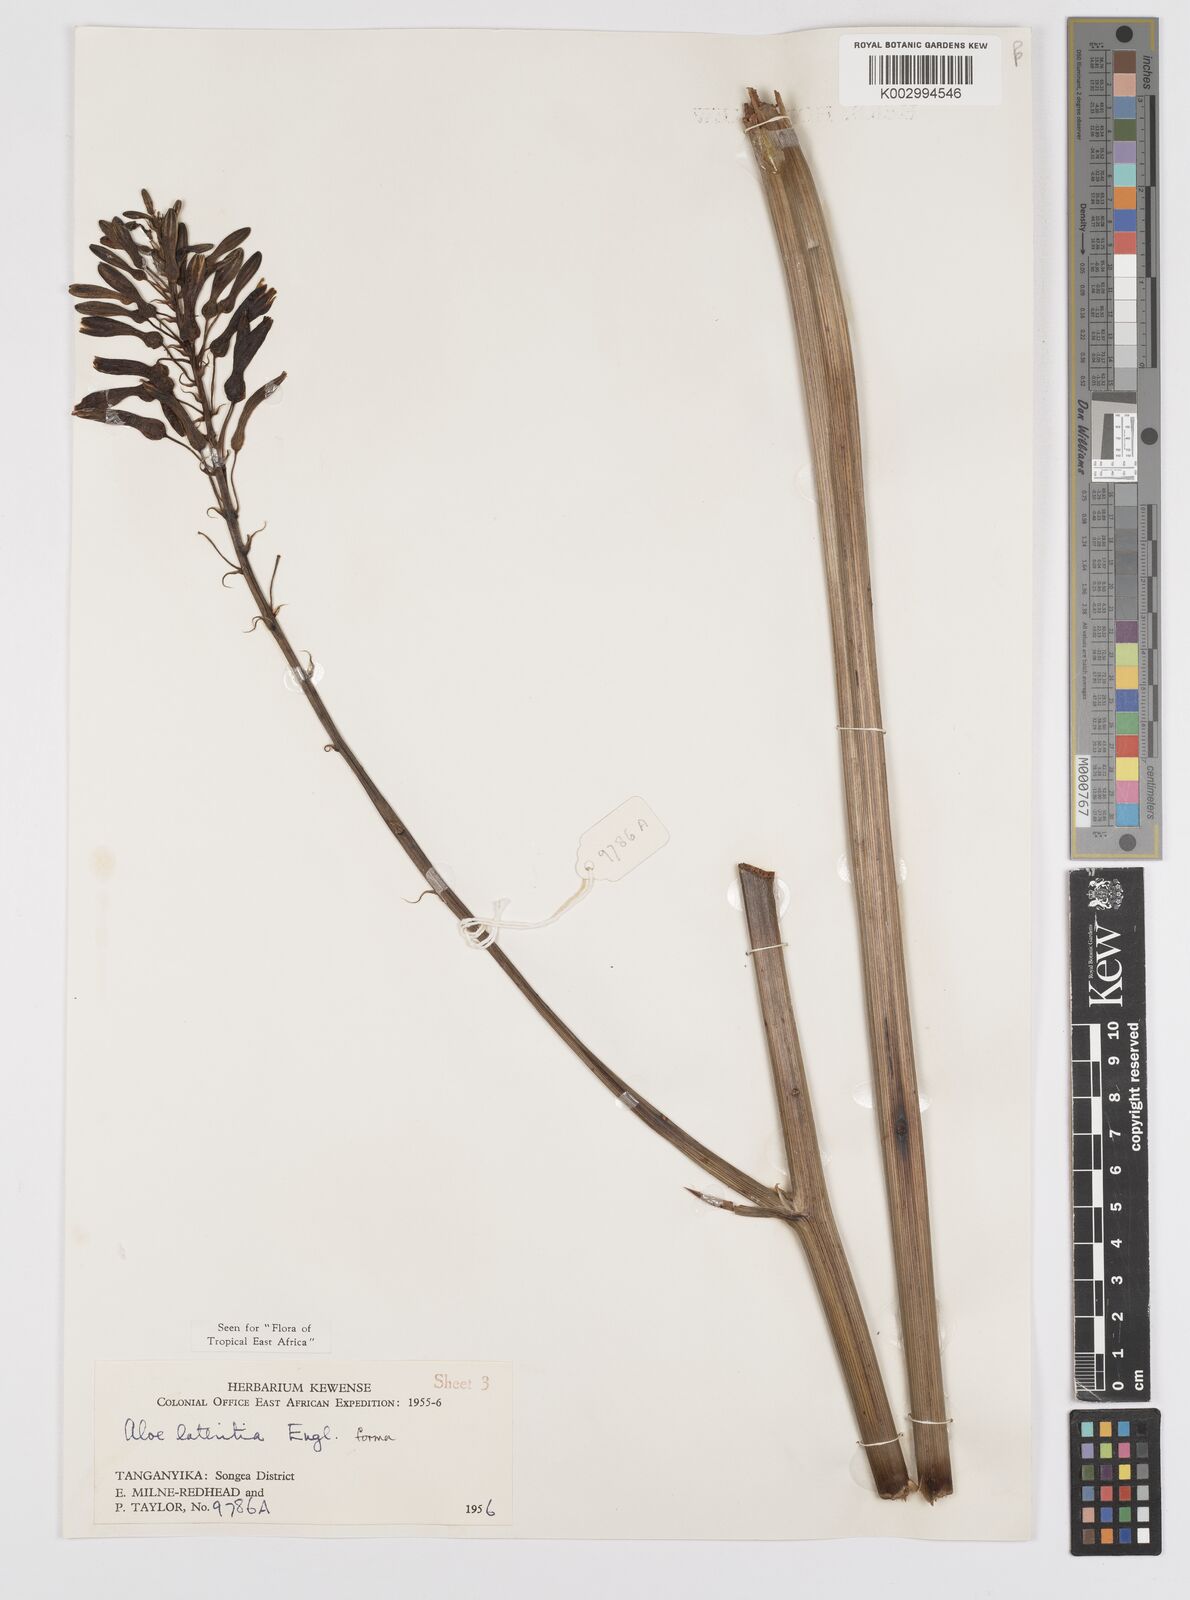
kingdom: Plantae
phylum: Tracheophyta
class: Liliopsida
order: Asparagales
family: Asphodelaceae
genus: Aloe
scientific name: Aloe lateritia
